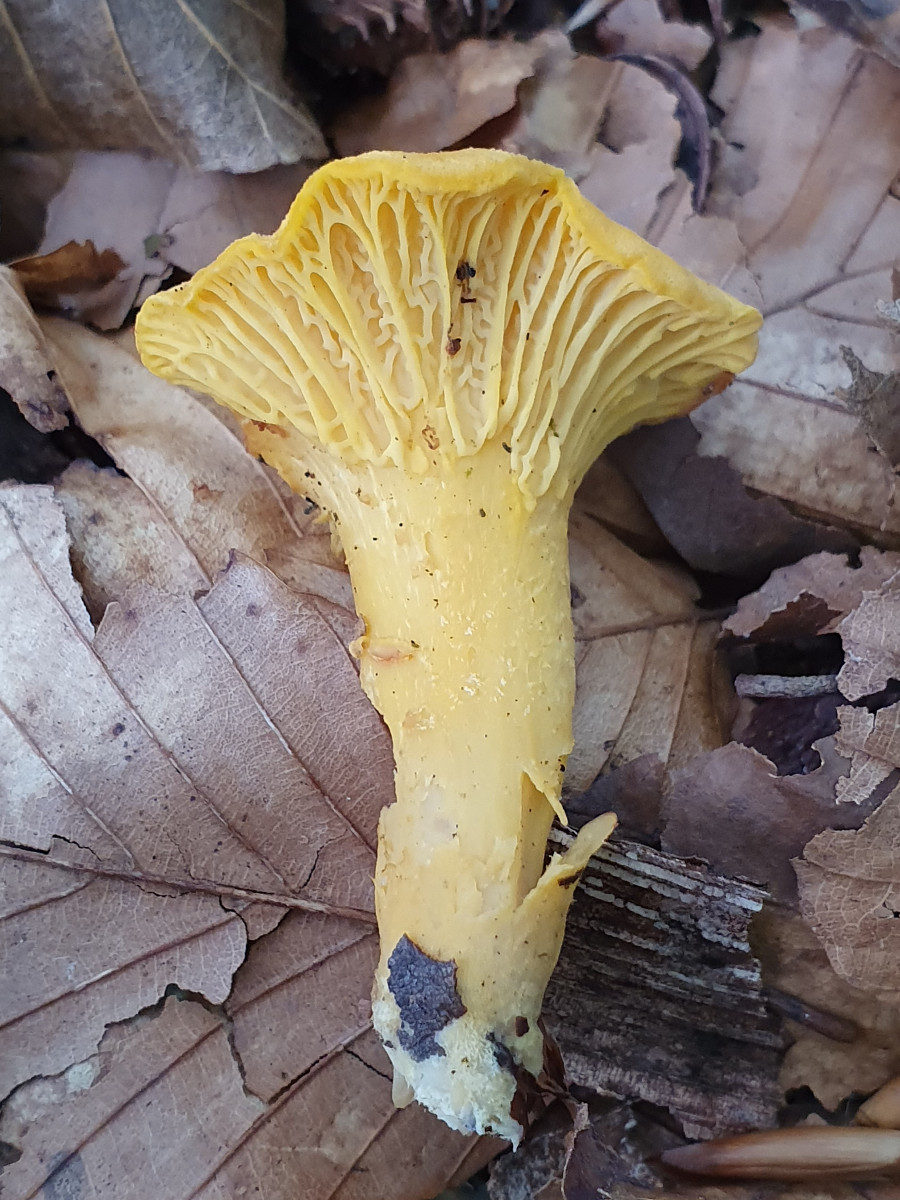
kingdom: Fungi
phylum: Basidiomycota
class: Agaricomycetes
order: Cantharellales
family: Hydnaceae
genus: Cantharellus
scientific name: Cantharellus cibarius
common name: almindelig kantarel
